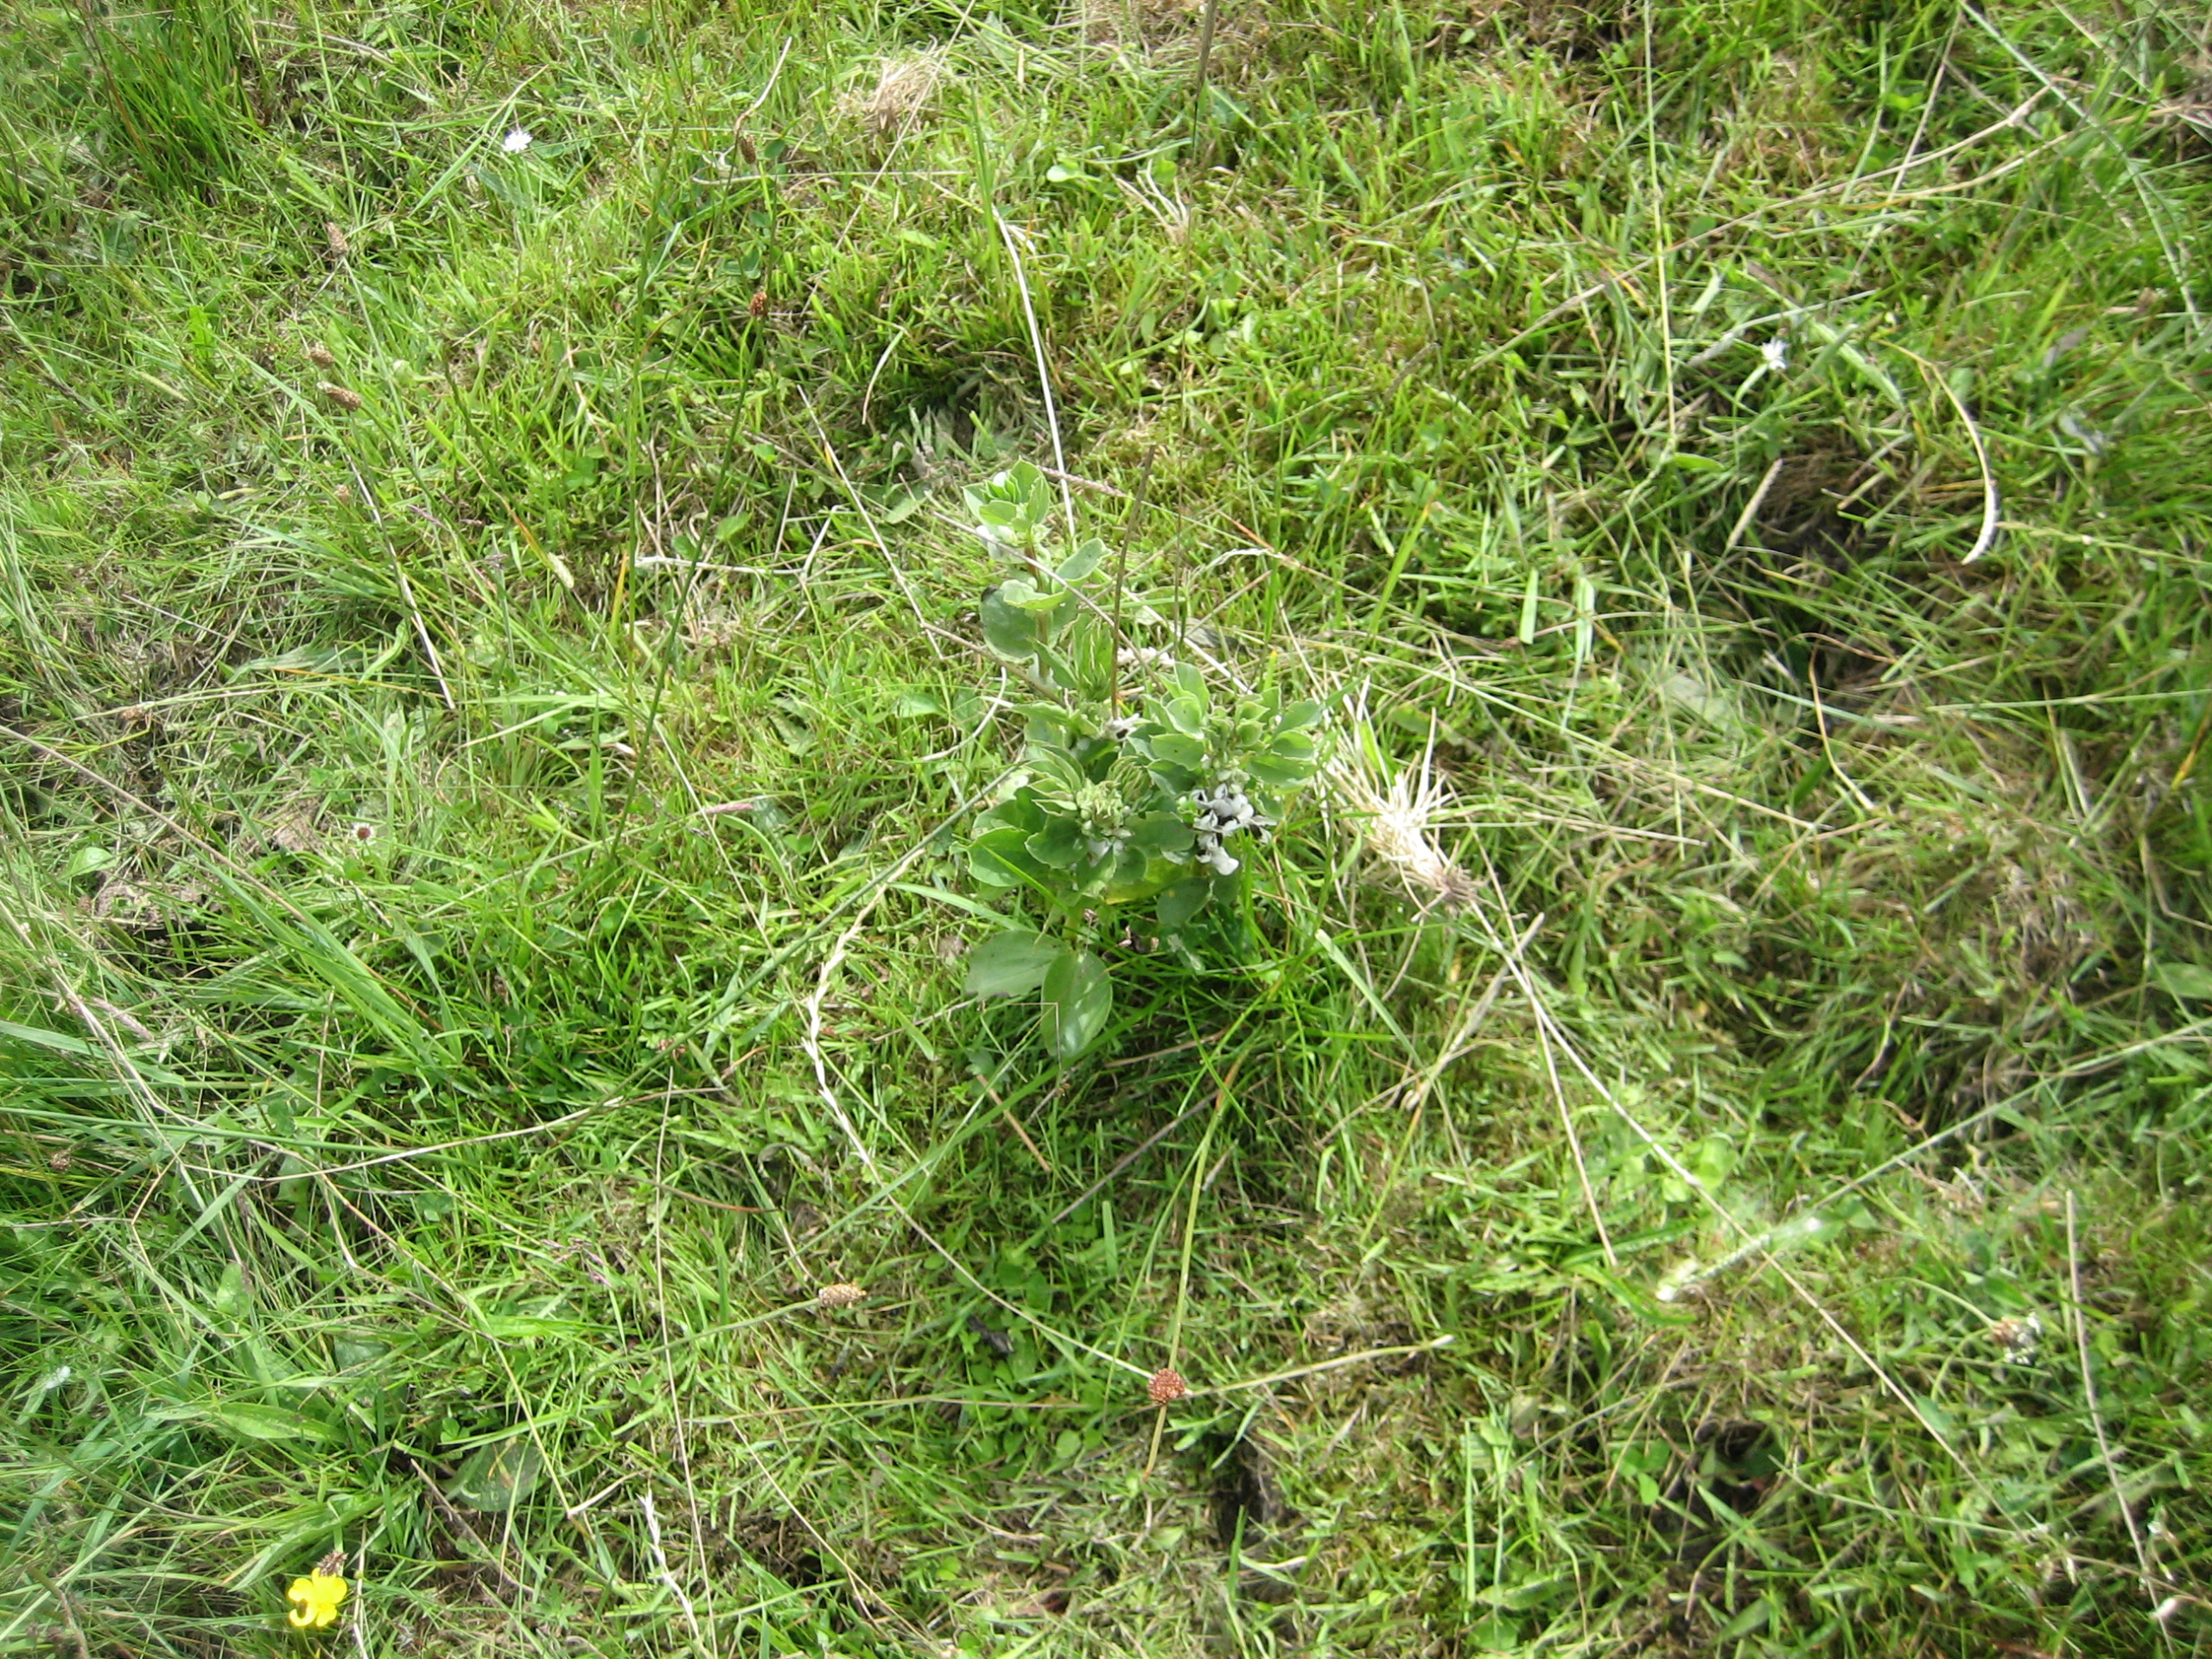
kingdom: Plantae
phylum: Tracheophyta
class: Magnoliopsida
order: Fabales
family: Fabaceae
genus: Vicia
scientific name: Vicia faba
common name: Hestebønne
